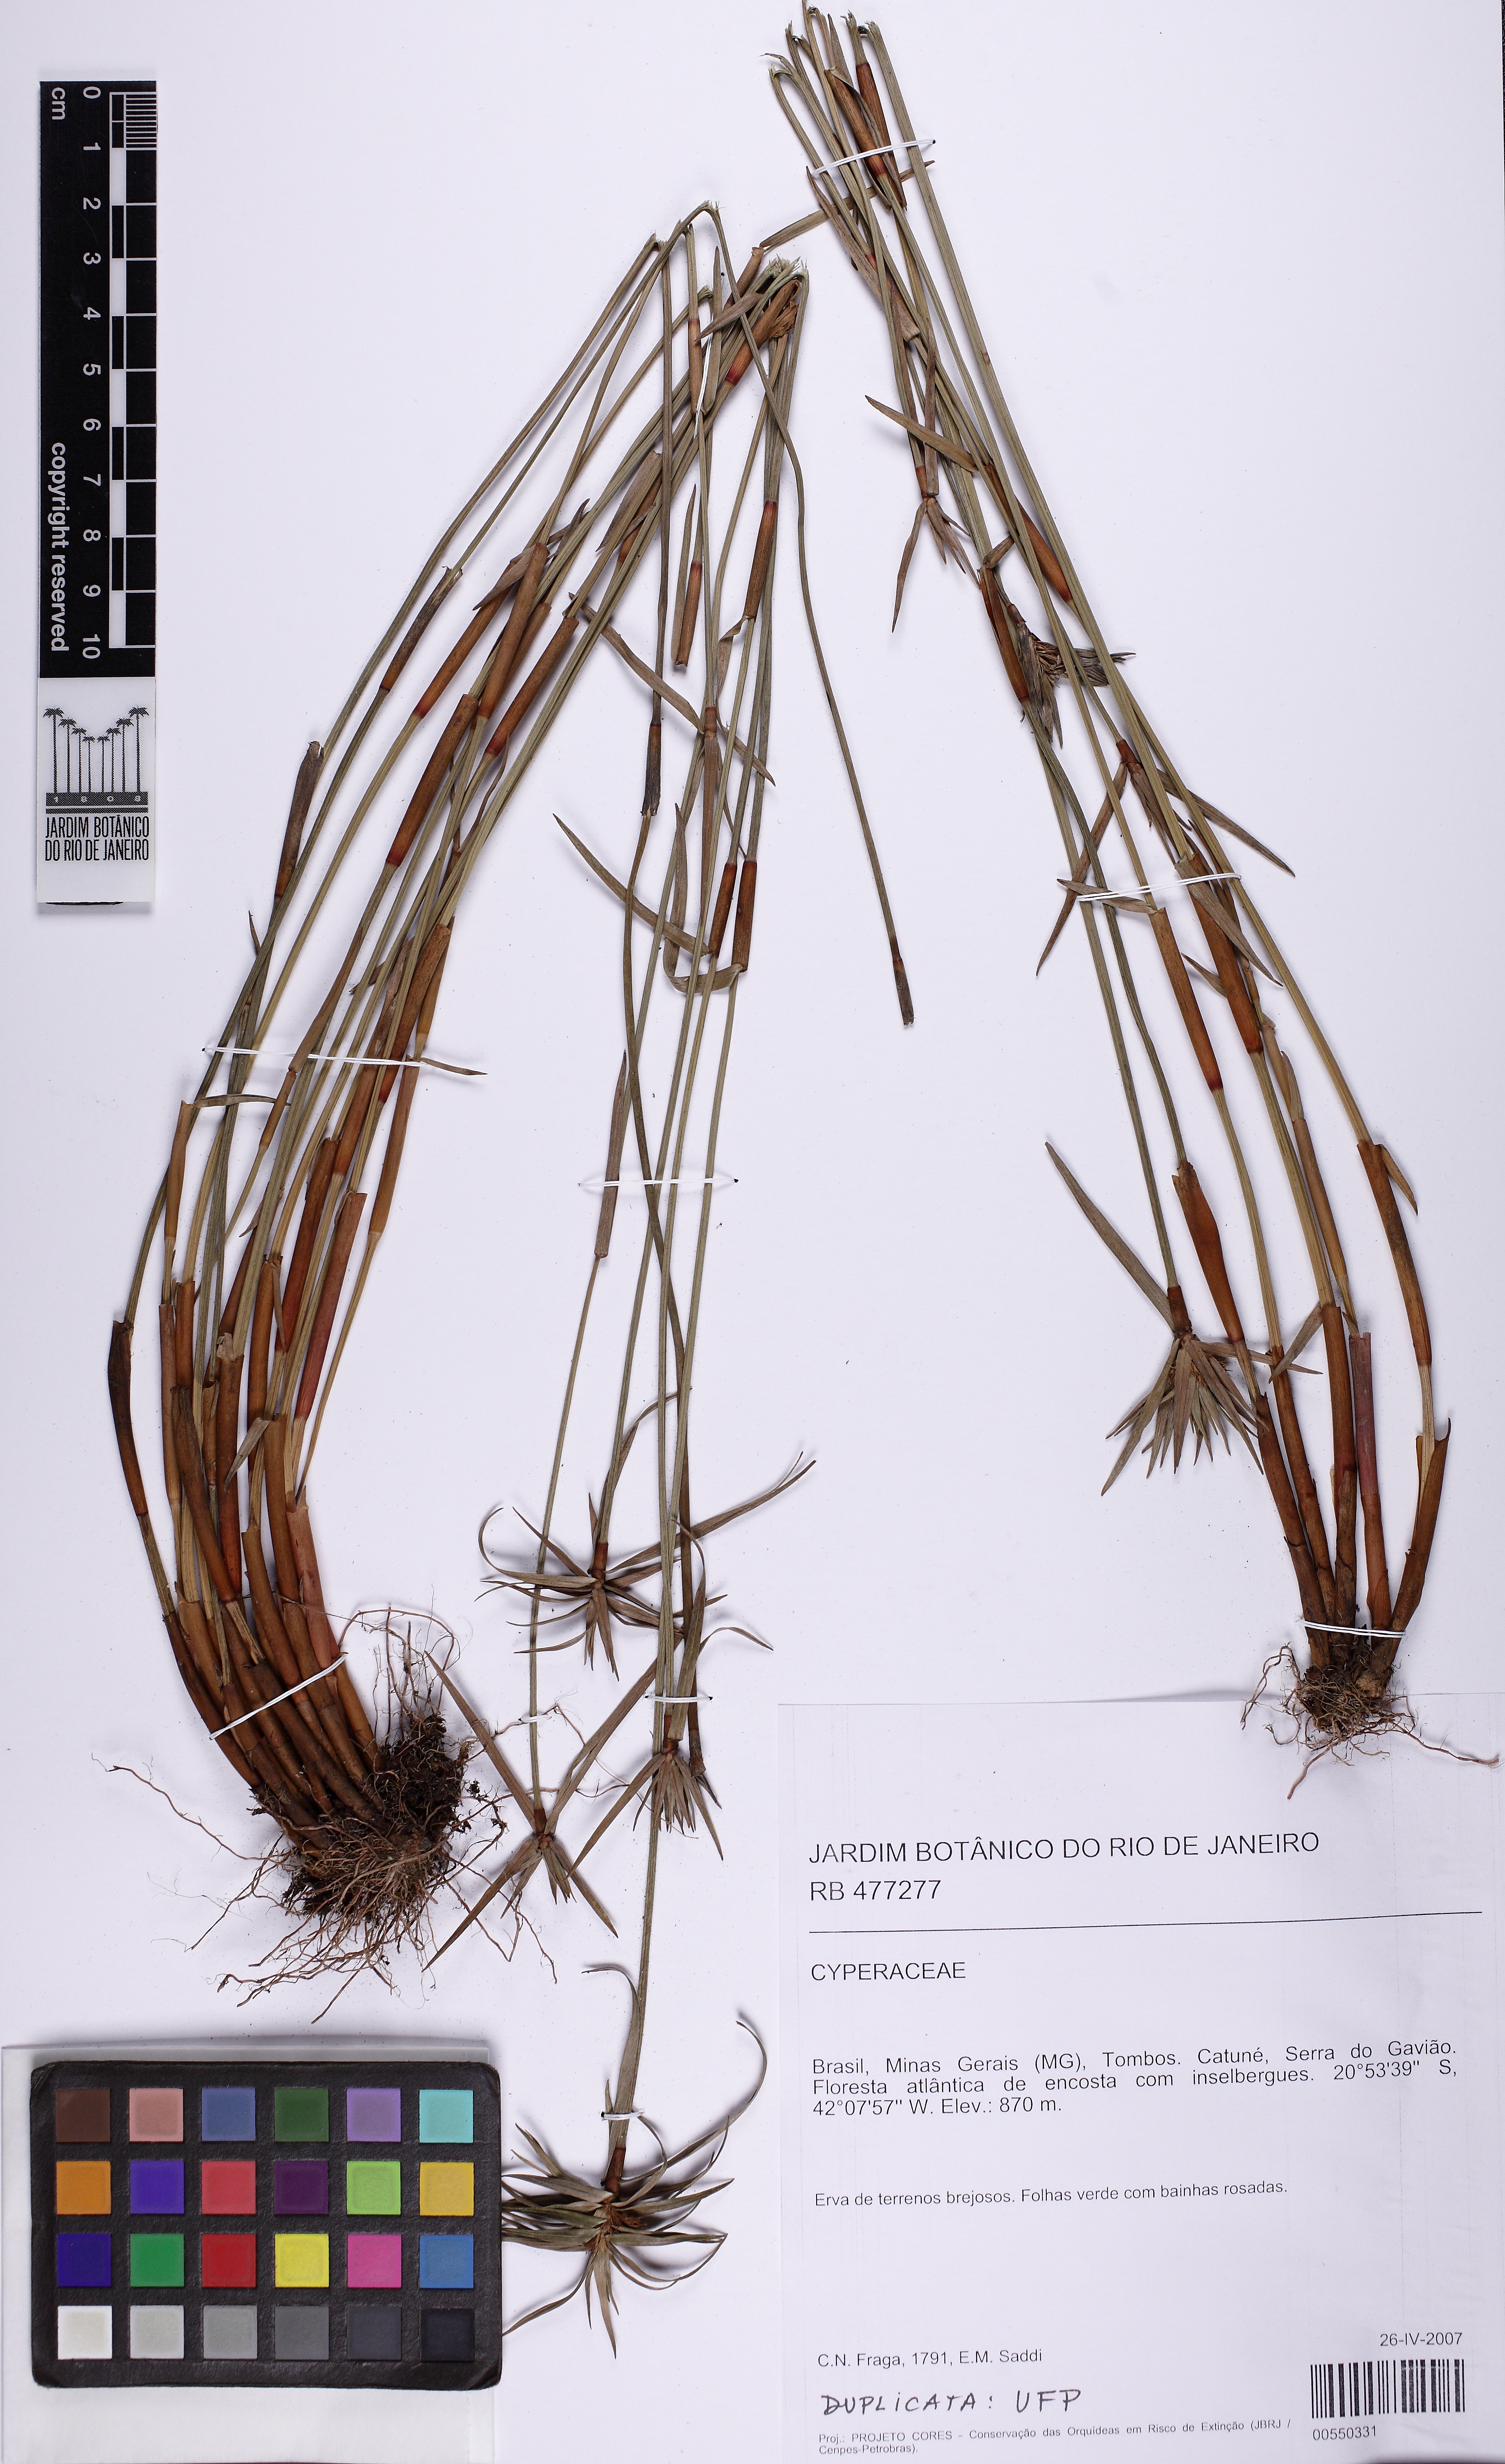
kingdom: Plantae
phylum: Tracheophyta
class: Liliopsida
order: Poales
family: Cyperaceae
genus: Krenakia
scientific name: Krenakia comata
